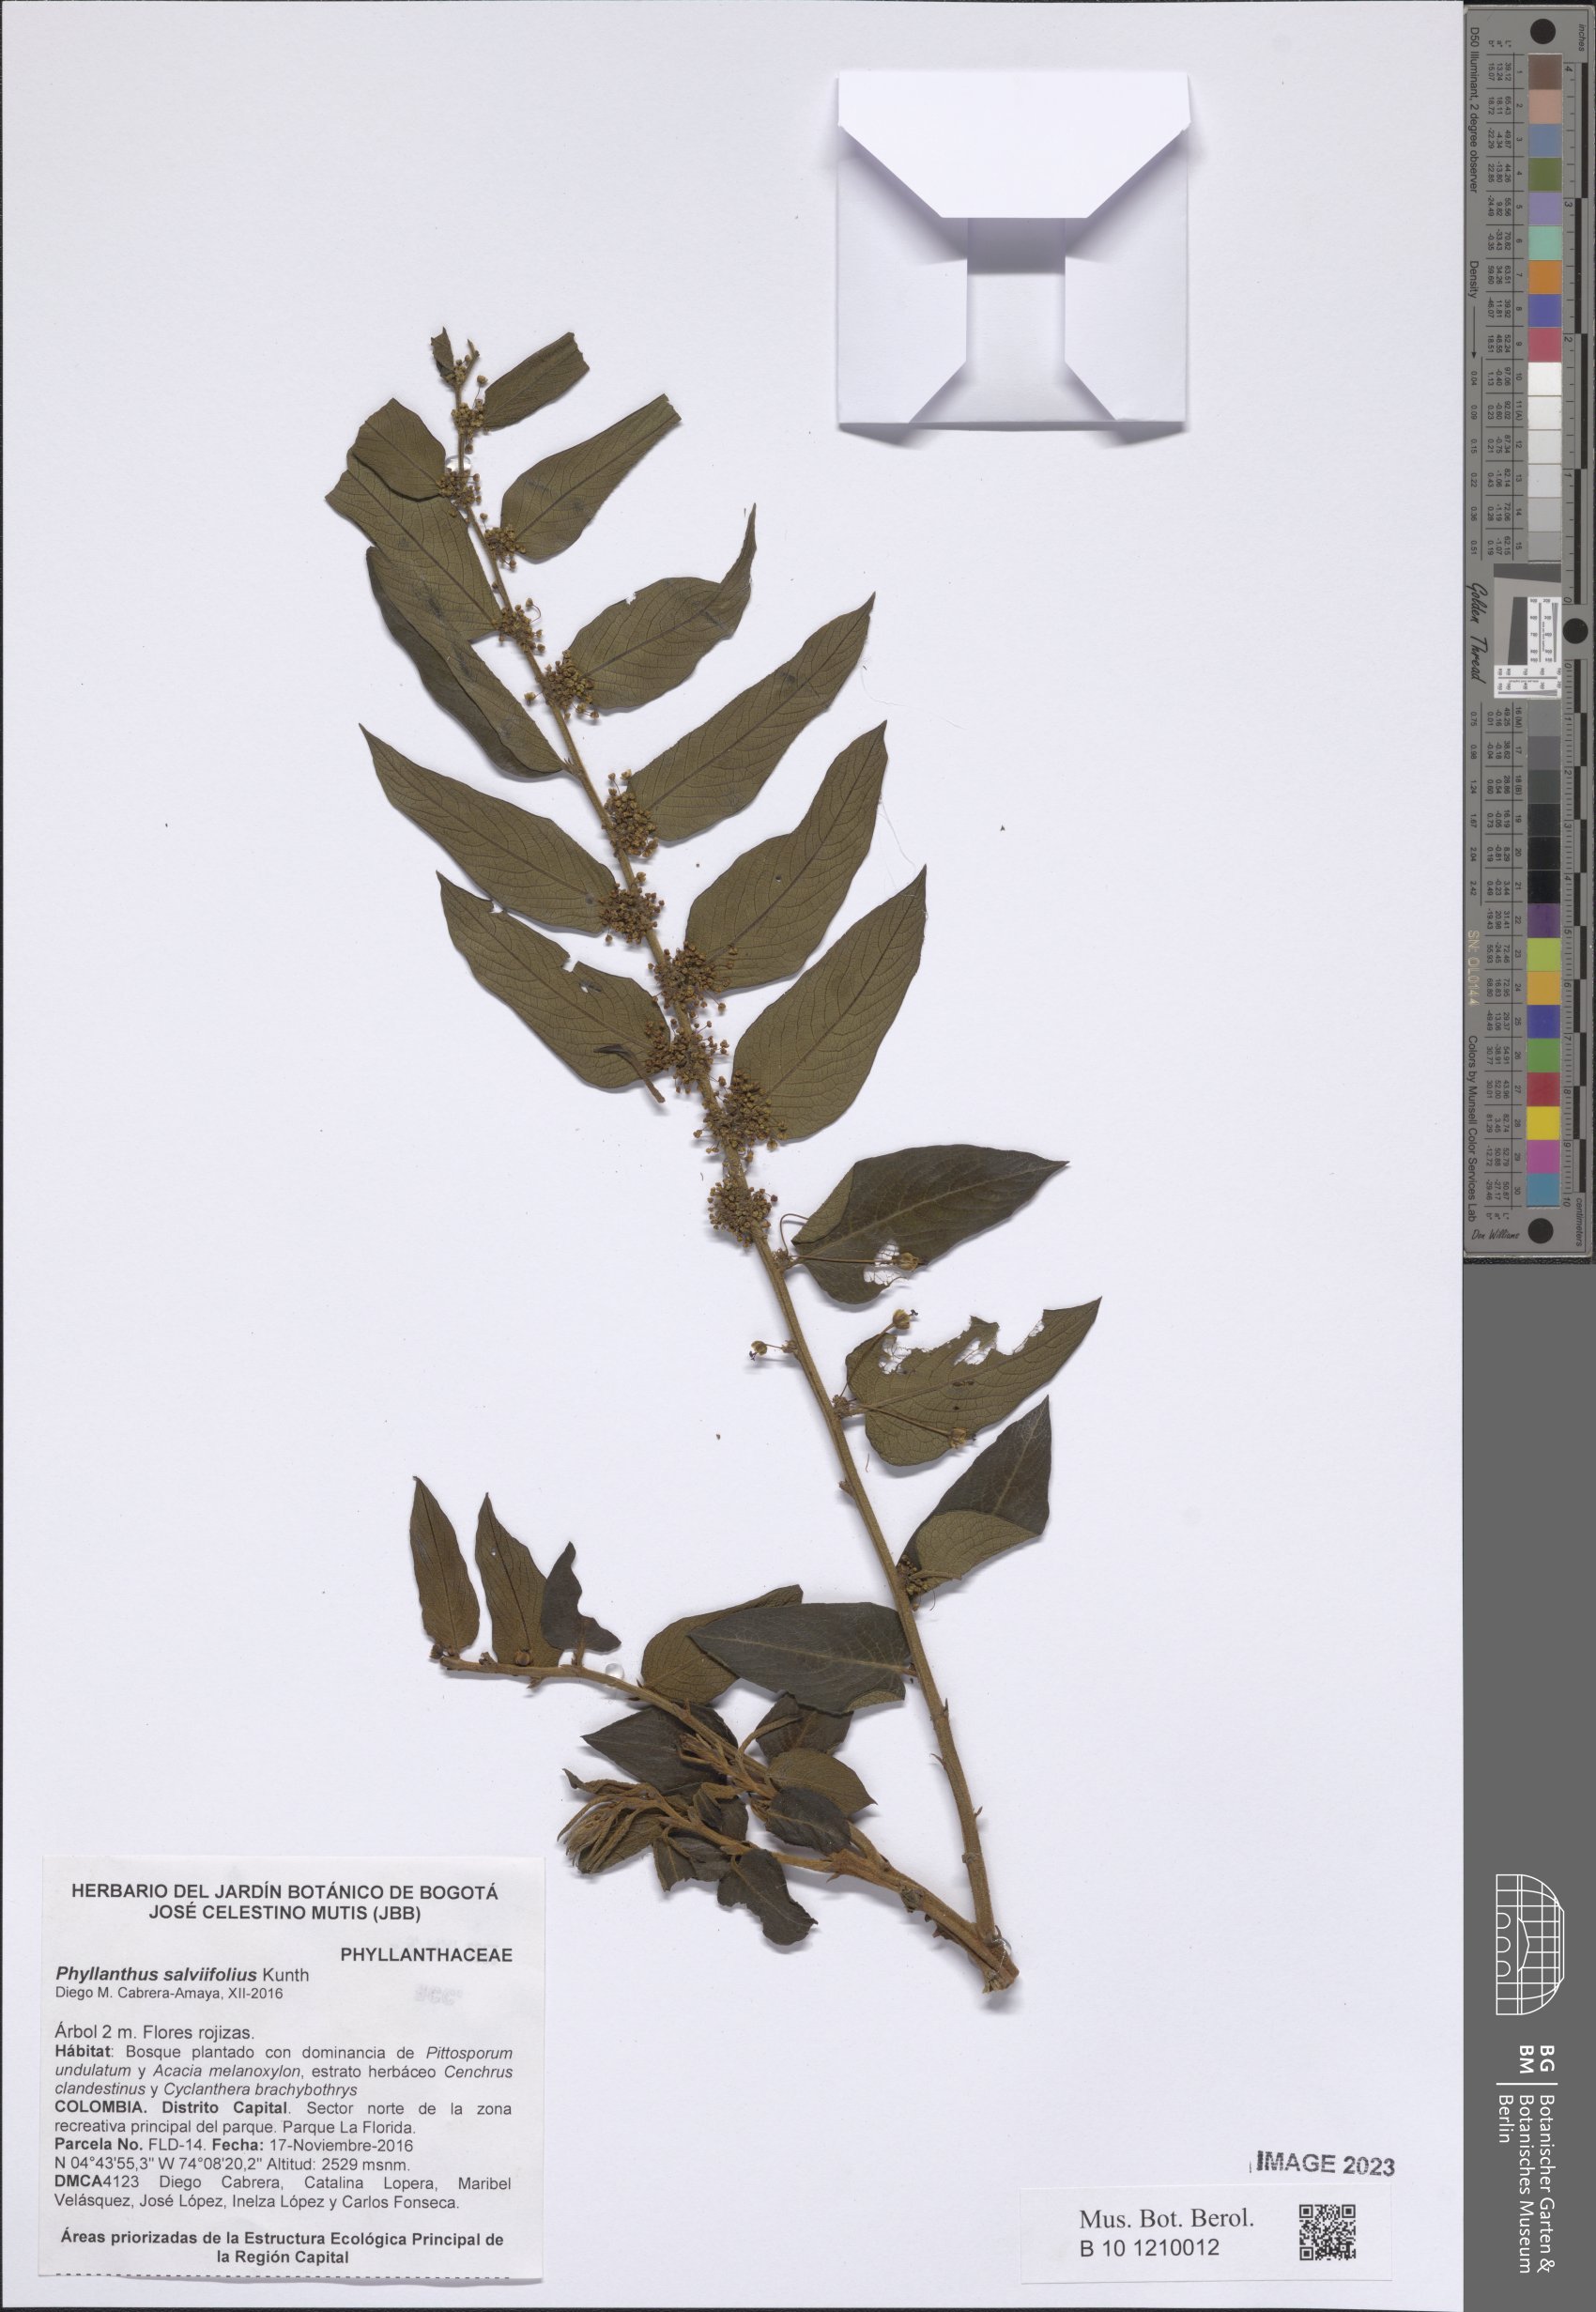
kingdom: Plantae
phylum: Tracheophyta
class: Magnoliopsida
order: Malpighiales
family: Phyllanthaceae
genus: Phyllanthus
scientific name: Phyllanthus salviifolius
